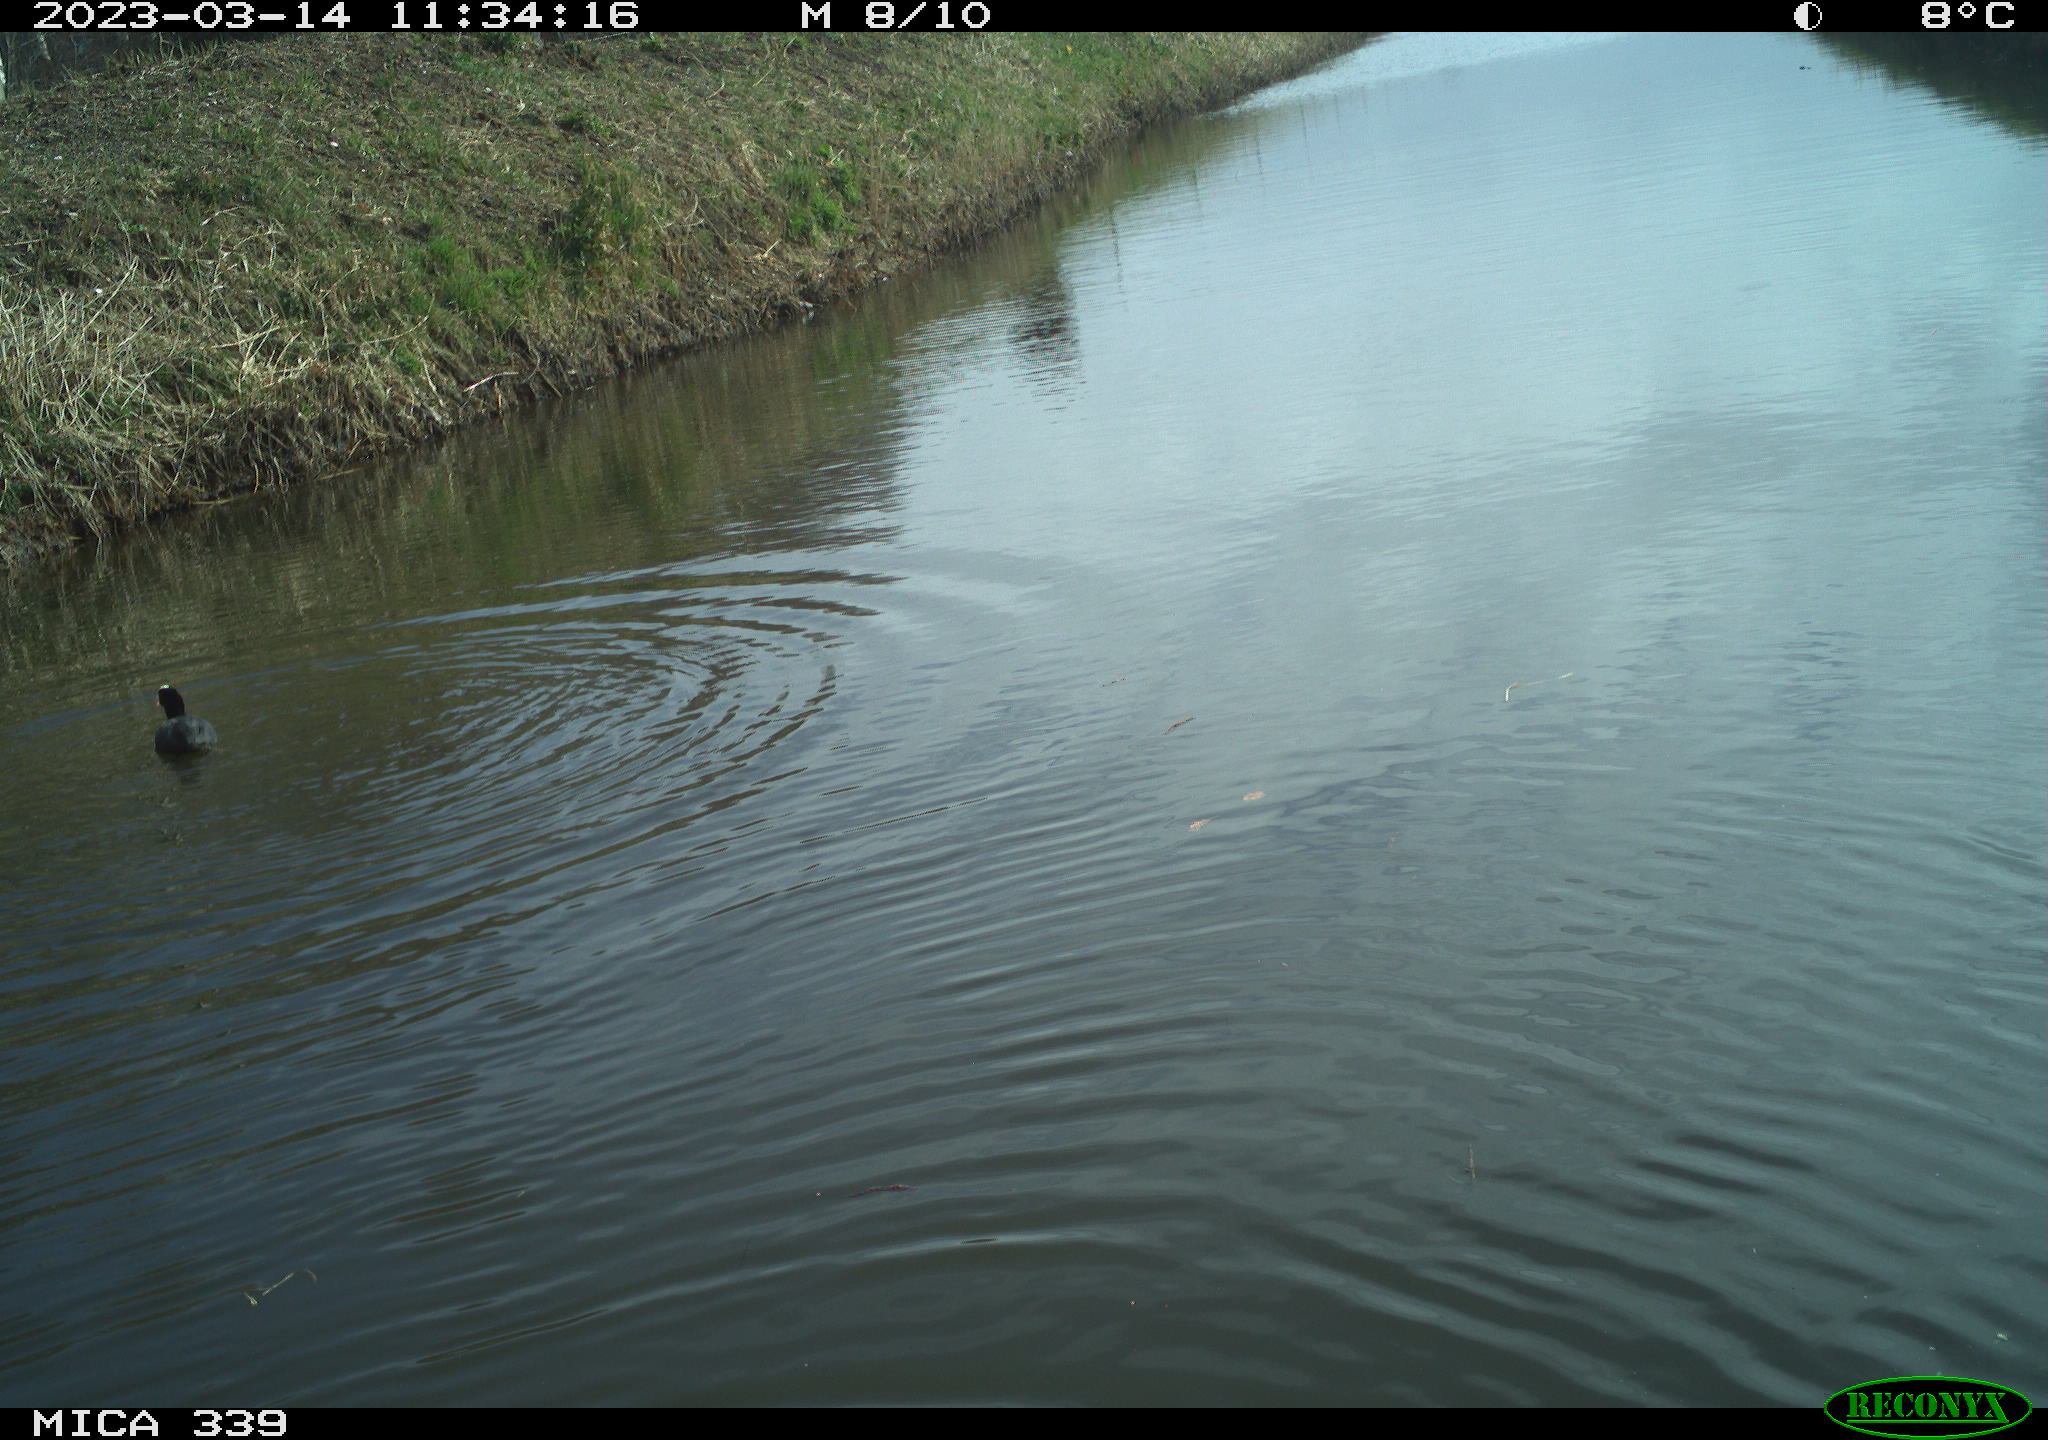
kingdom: Animalia
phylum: Chordata
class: Aves
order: Gruiformes
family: Rallidae
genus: Fulica
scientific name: Fulica atra
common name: Eurasian coot
